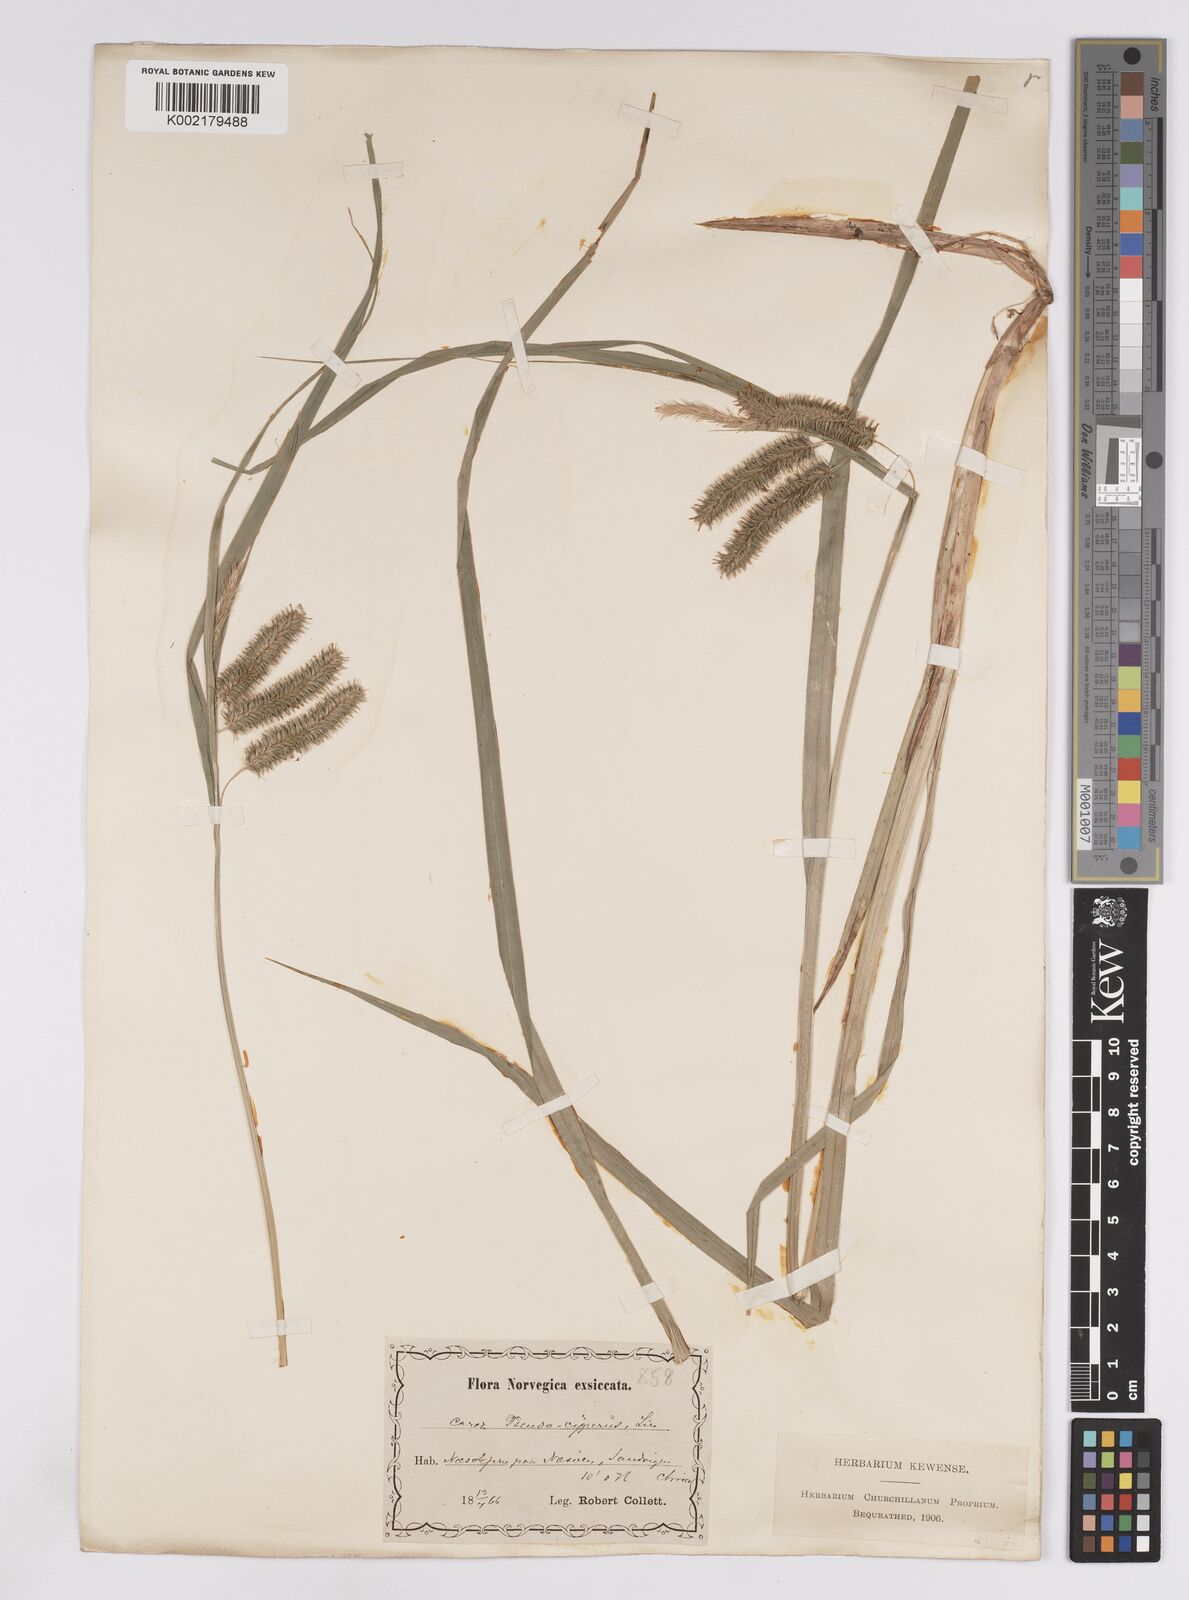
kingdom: Plantae
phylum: Tracheophyta
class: Liliopsida
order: Poales
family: Cyperaceae
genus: Carex
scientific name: Carex pseudocyperus
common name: Cyperus sedge
